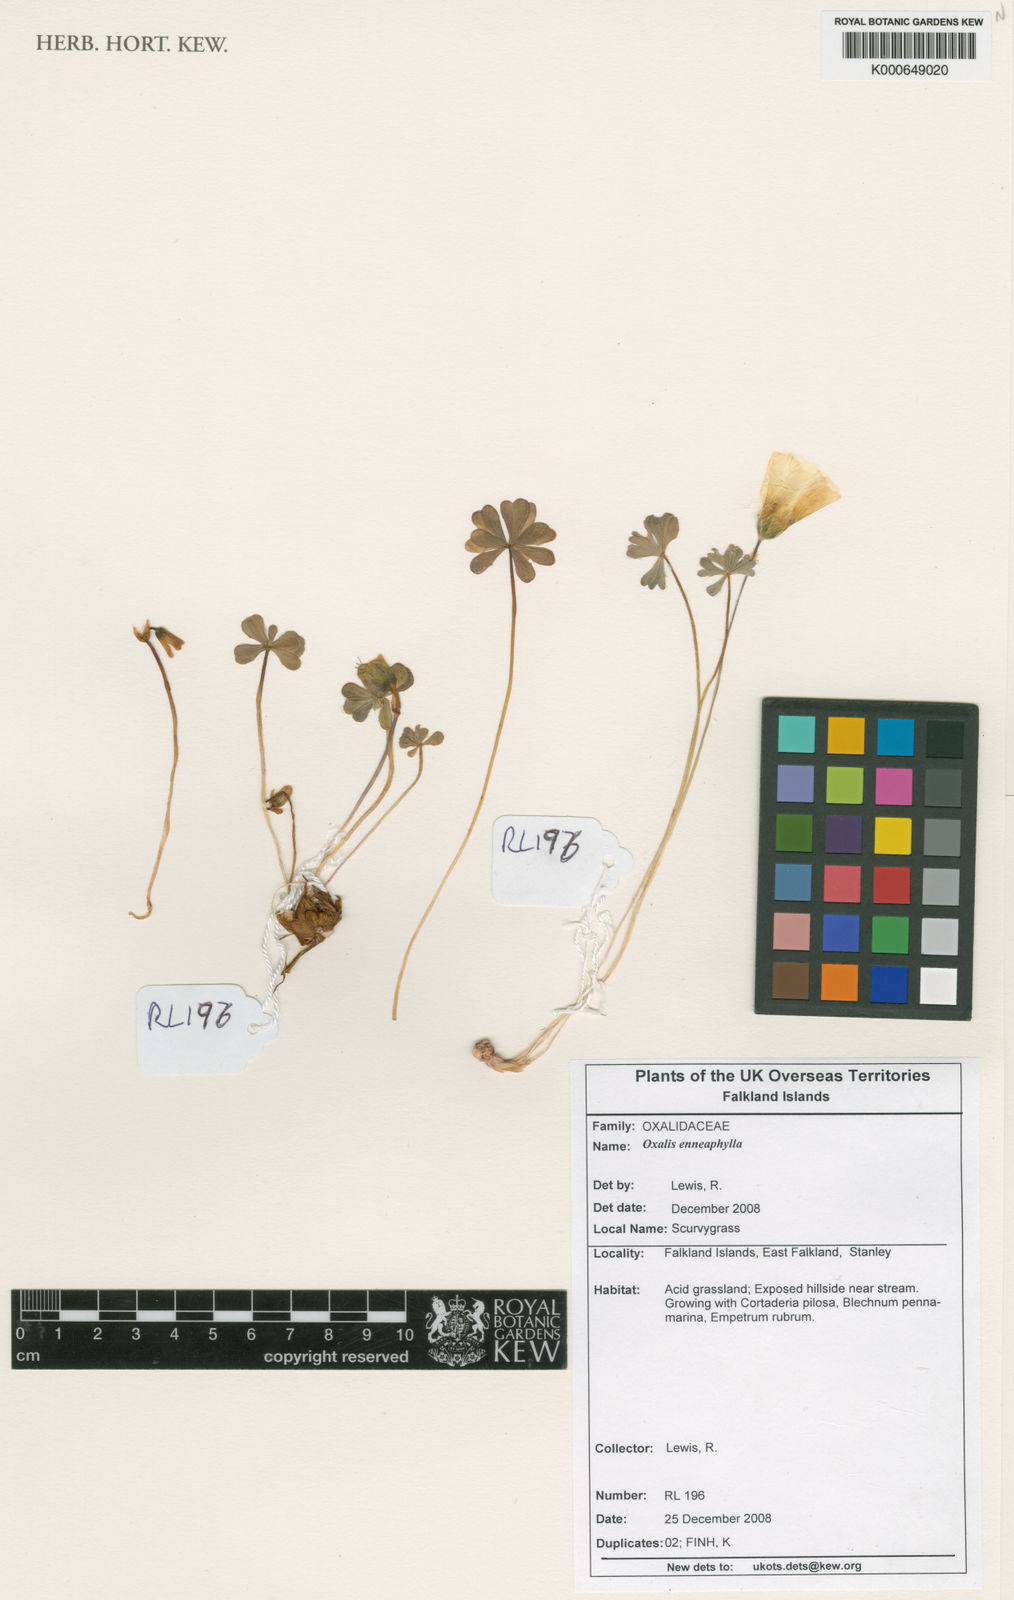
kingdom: Plantae
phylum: Tracheophyta
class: Magnoliopsida
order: Oxalidales
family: Oxalidaceae
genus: Oxalis
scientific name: Oxalis enneaphylla
